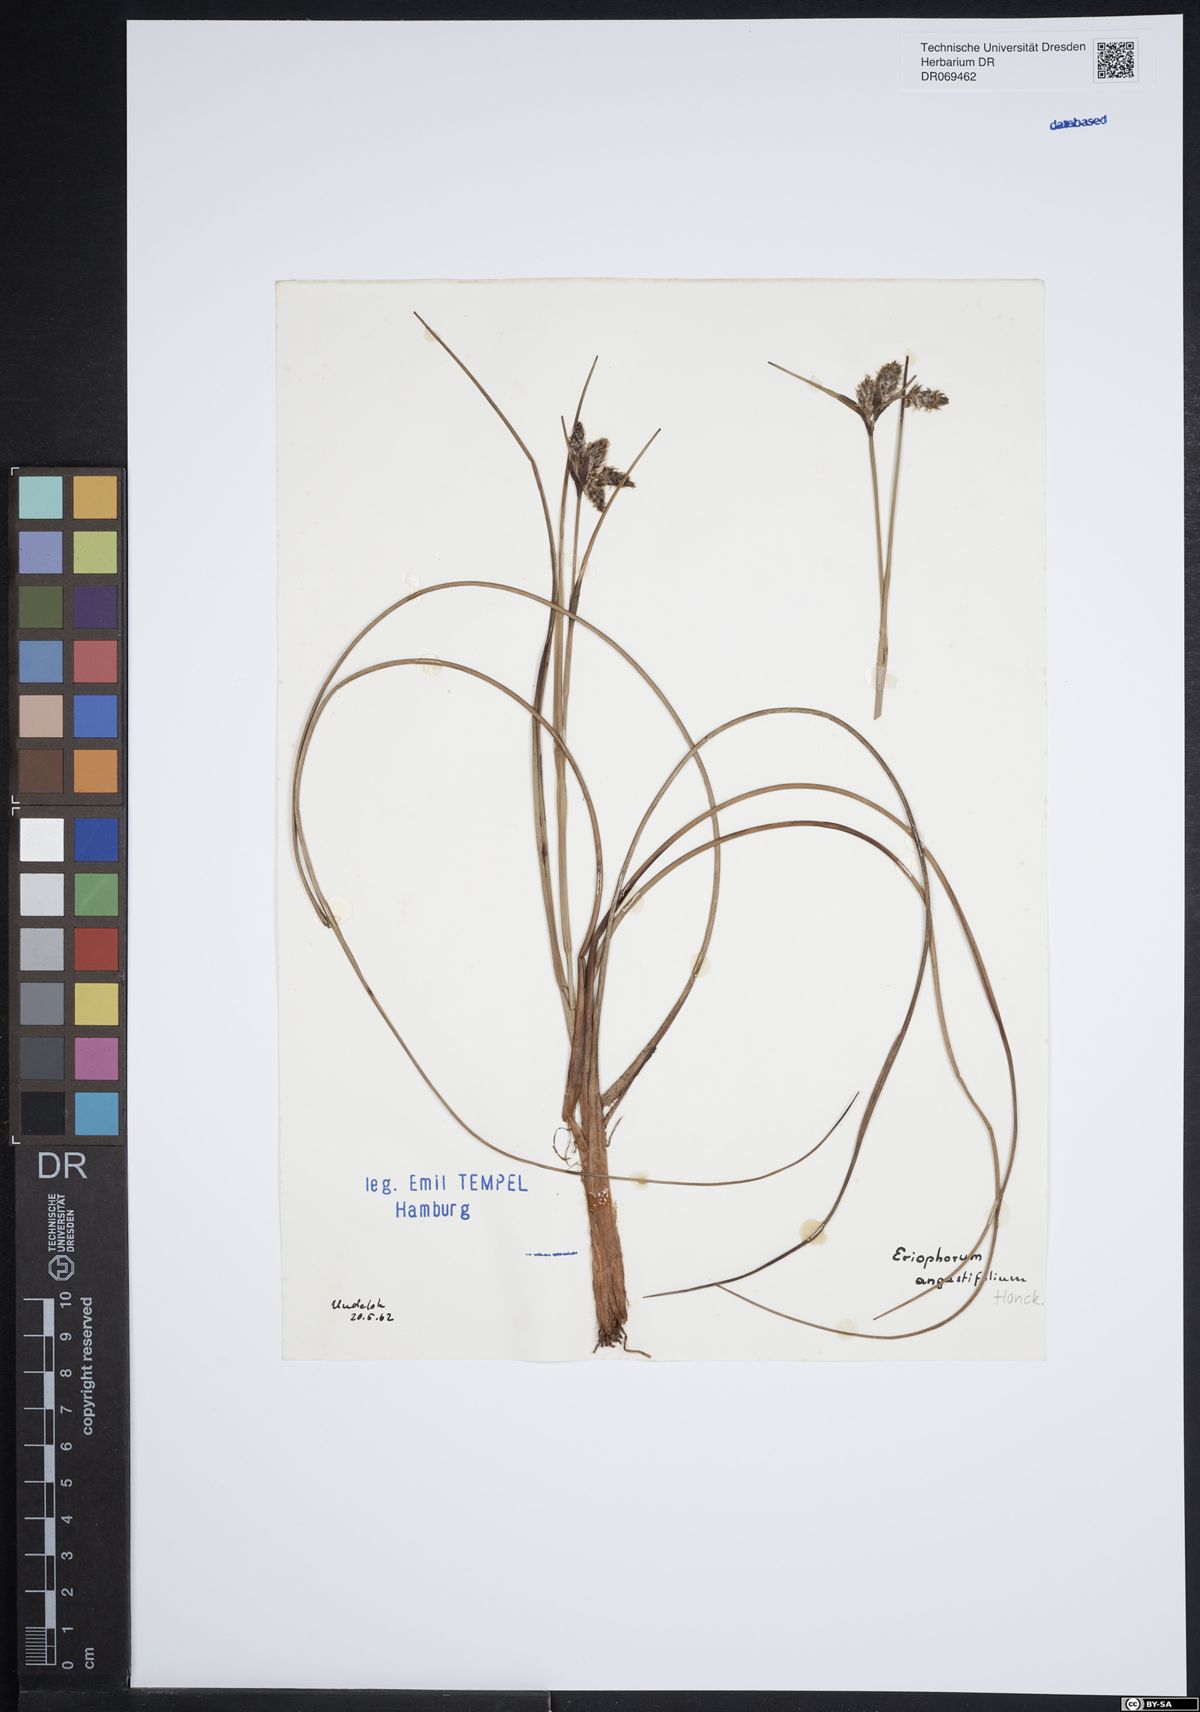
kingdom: Plantae
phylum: Tracheophyta
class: Liliopsida
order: Poales
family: Cyperaceae
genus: Eriophorum
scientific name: Eriophorum angustifolium
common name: Common cottongrass
